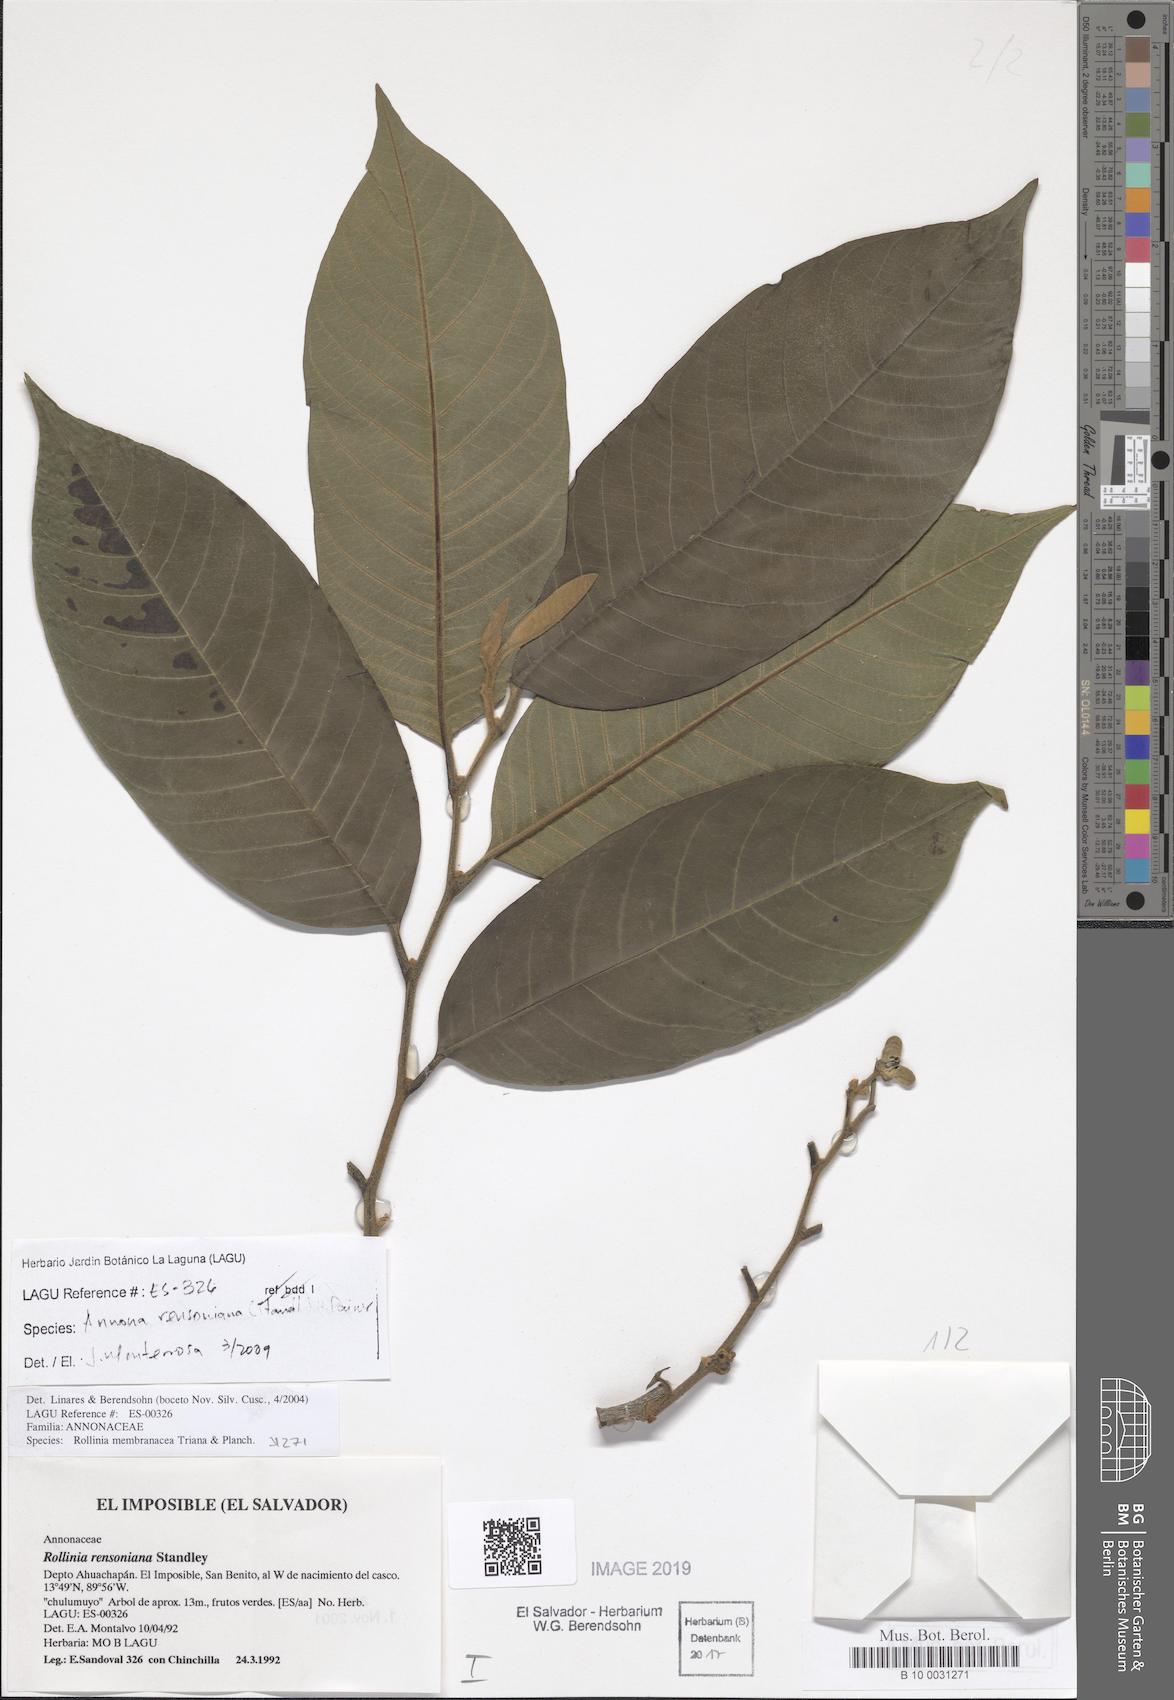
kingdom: Plantae
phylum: Tracheophyta
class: Magnoliopsida
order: Magnoliales
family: Annonaceae
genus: Annona
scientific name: Annona rensoniana
